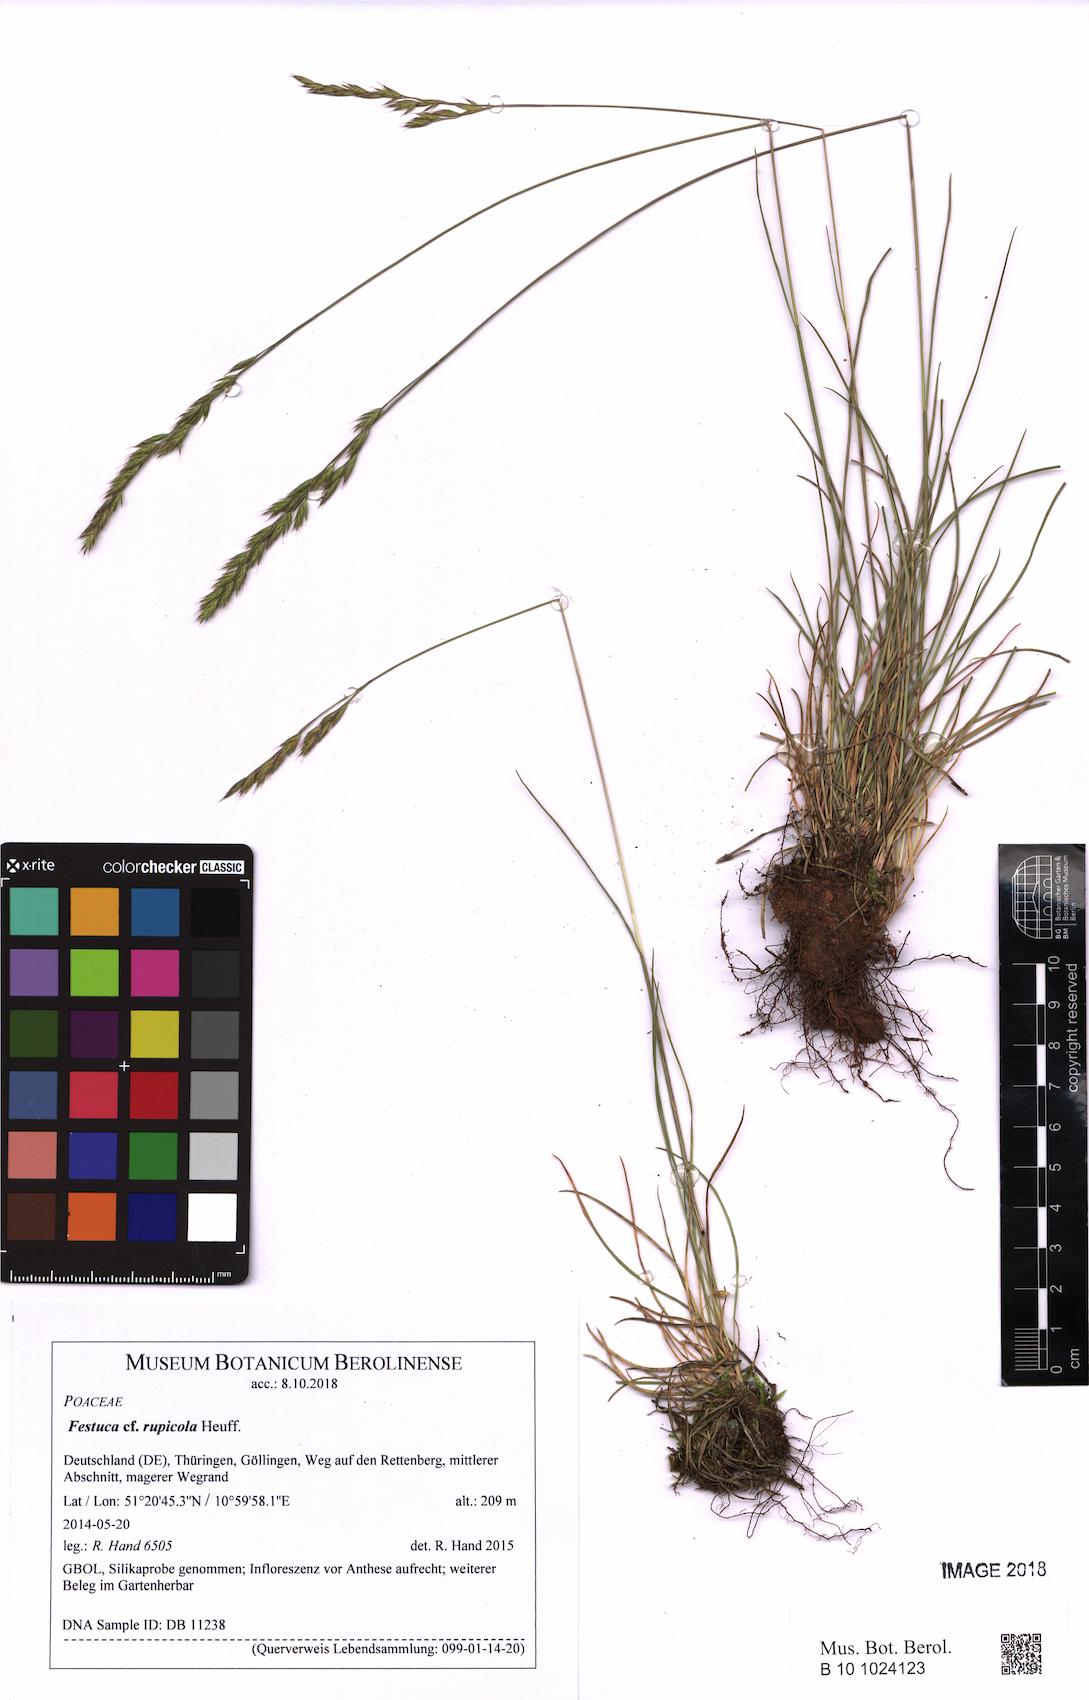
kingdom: Plantae
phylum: Tracheophyta
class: Liliopsida
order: Poales
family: Poaceae
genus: Festuca
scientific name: Festuca rupicola
